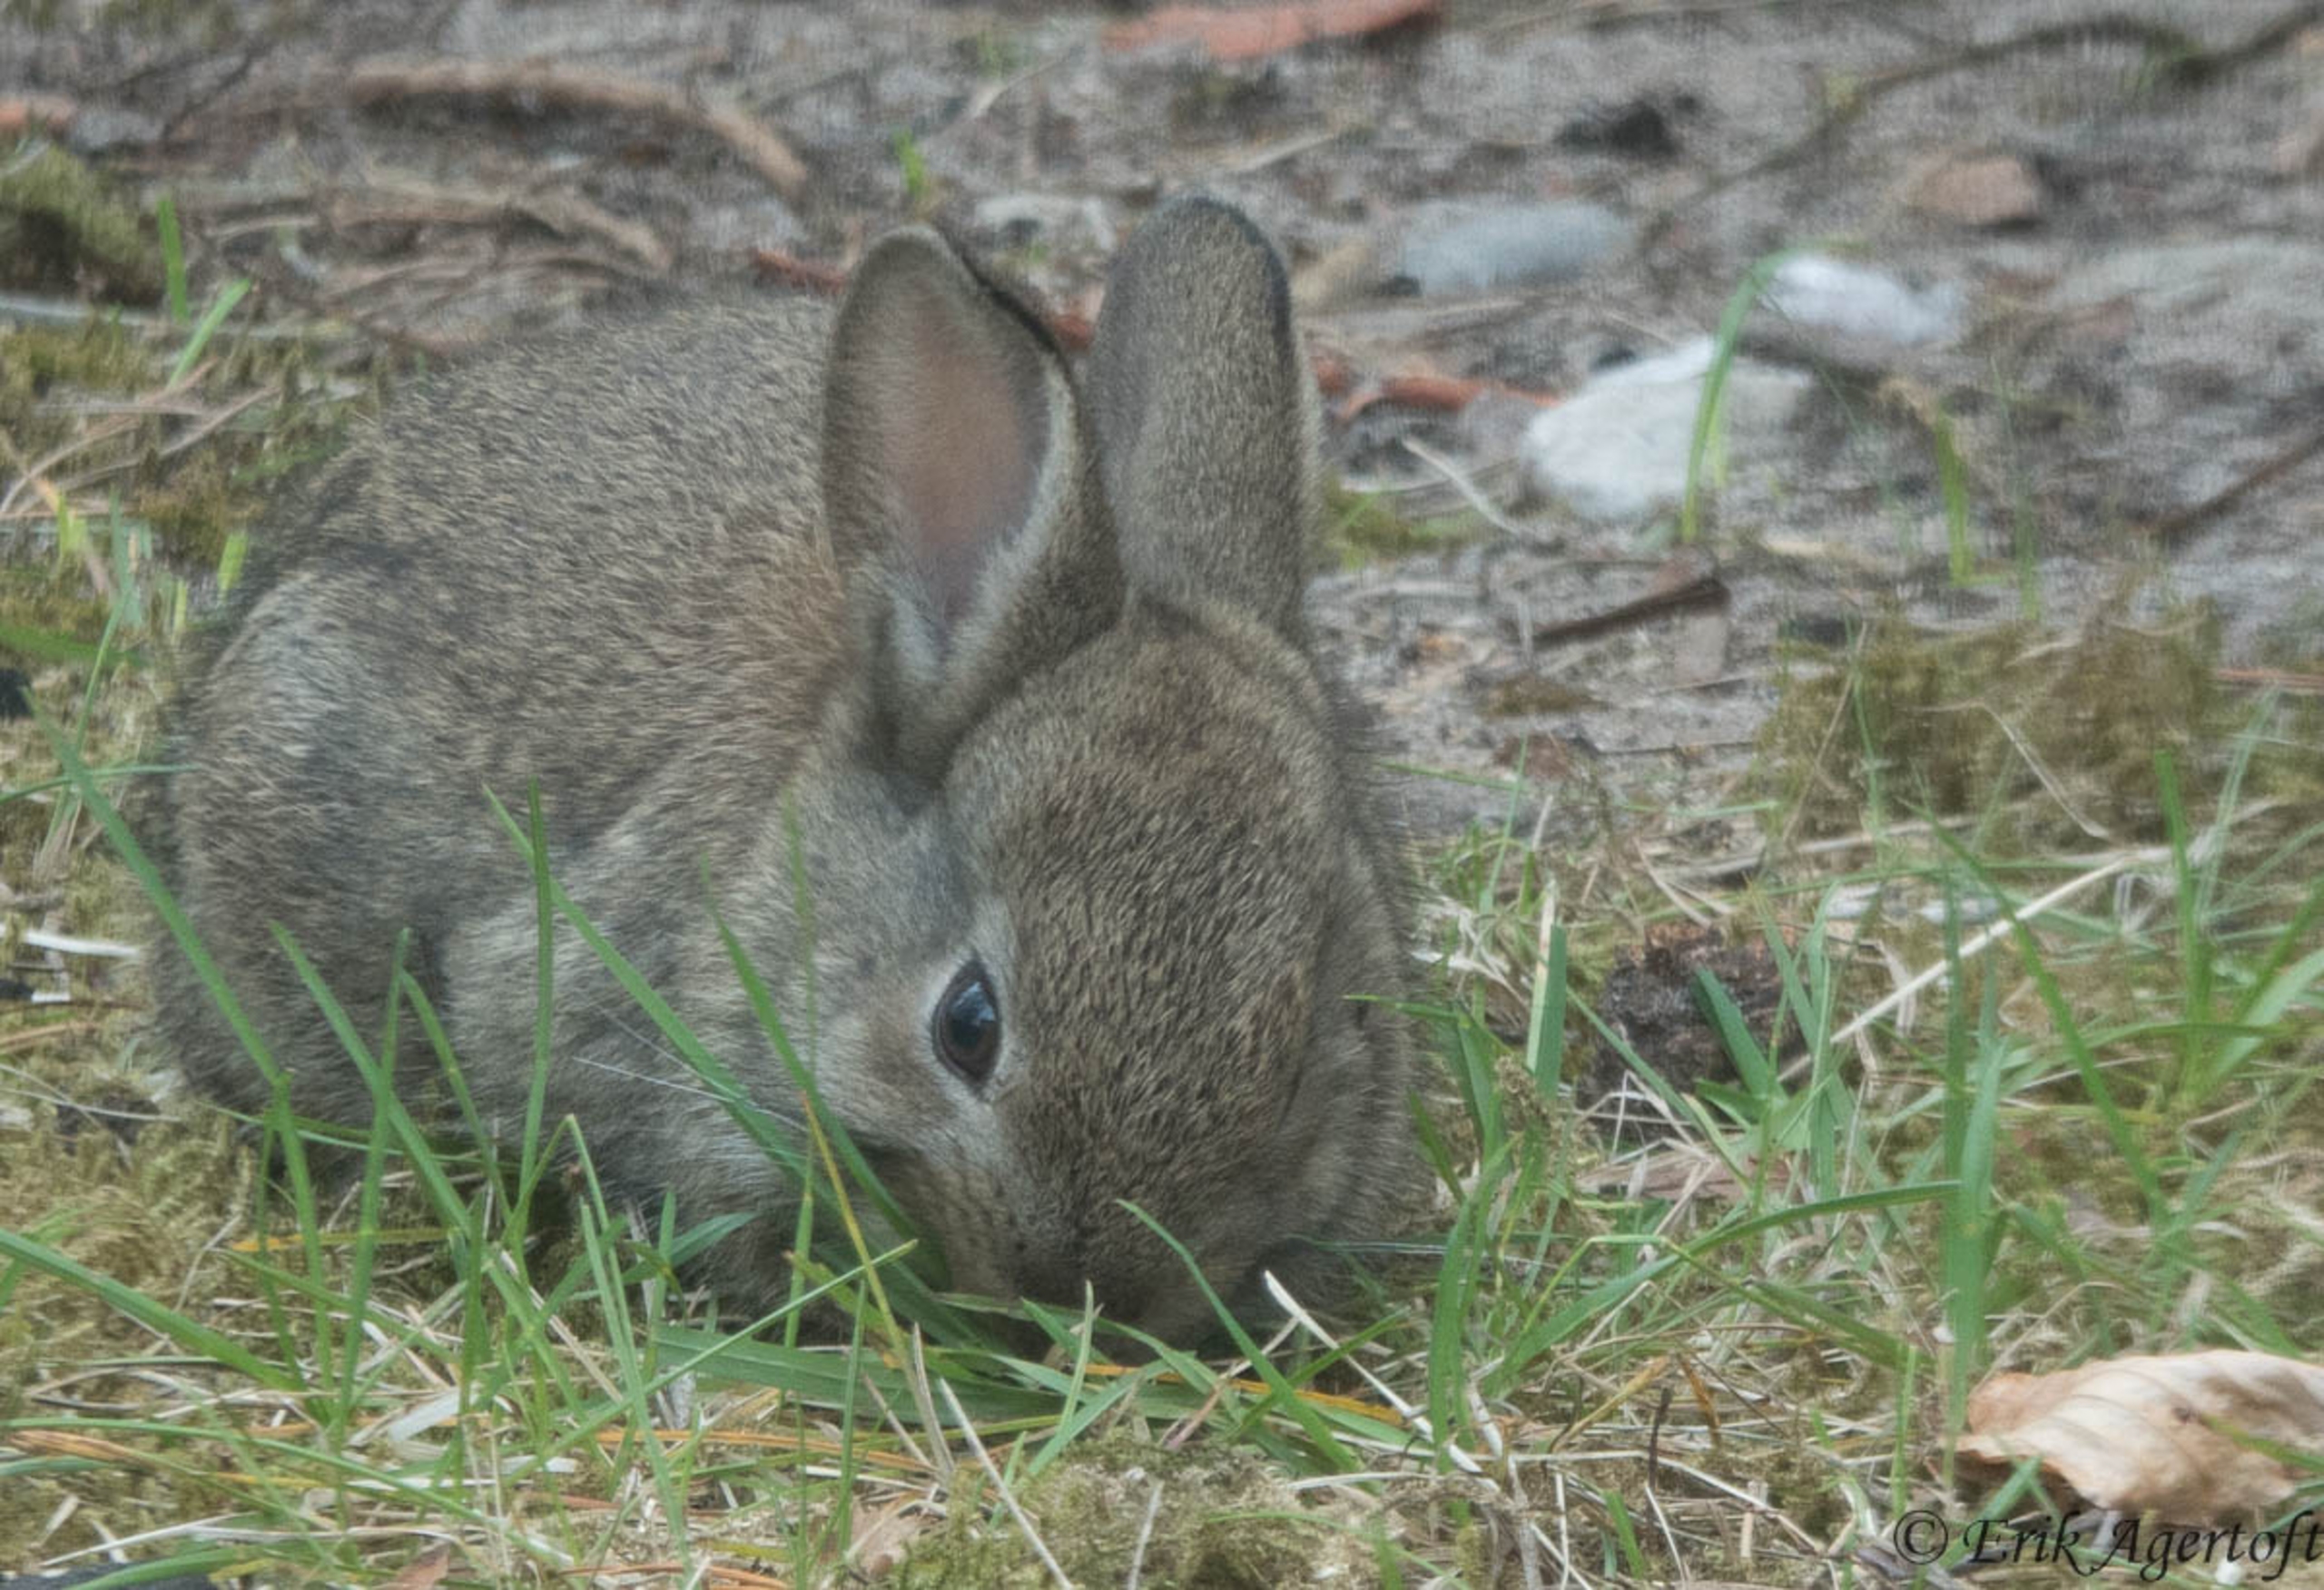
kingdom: Animalia
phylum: Chordata
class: Mammalia
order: Lagomorpha
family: Leporidae
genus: Oryctolagus
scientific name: Oryctolagus cuniculus
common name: Vildkanin
